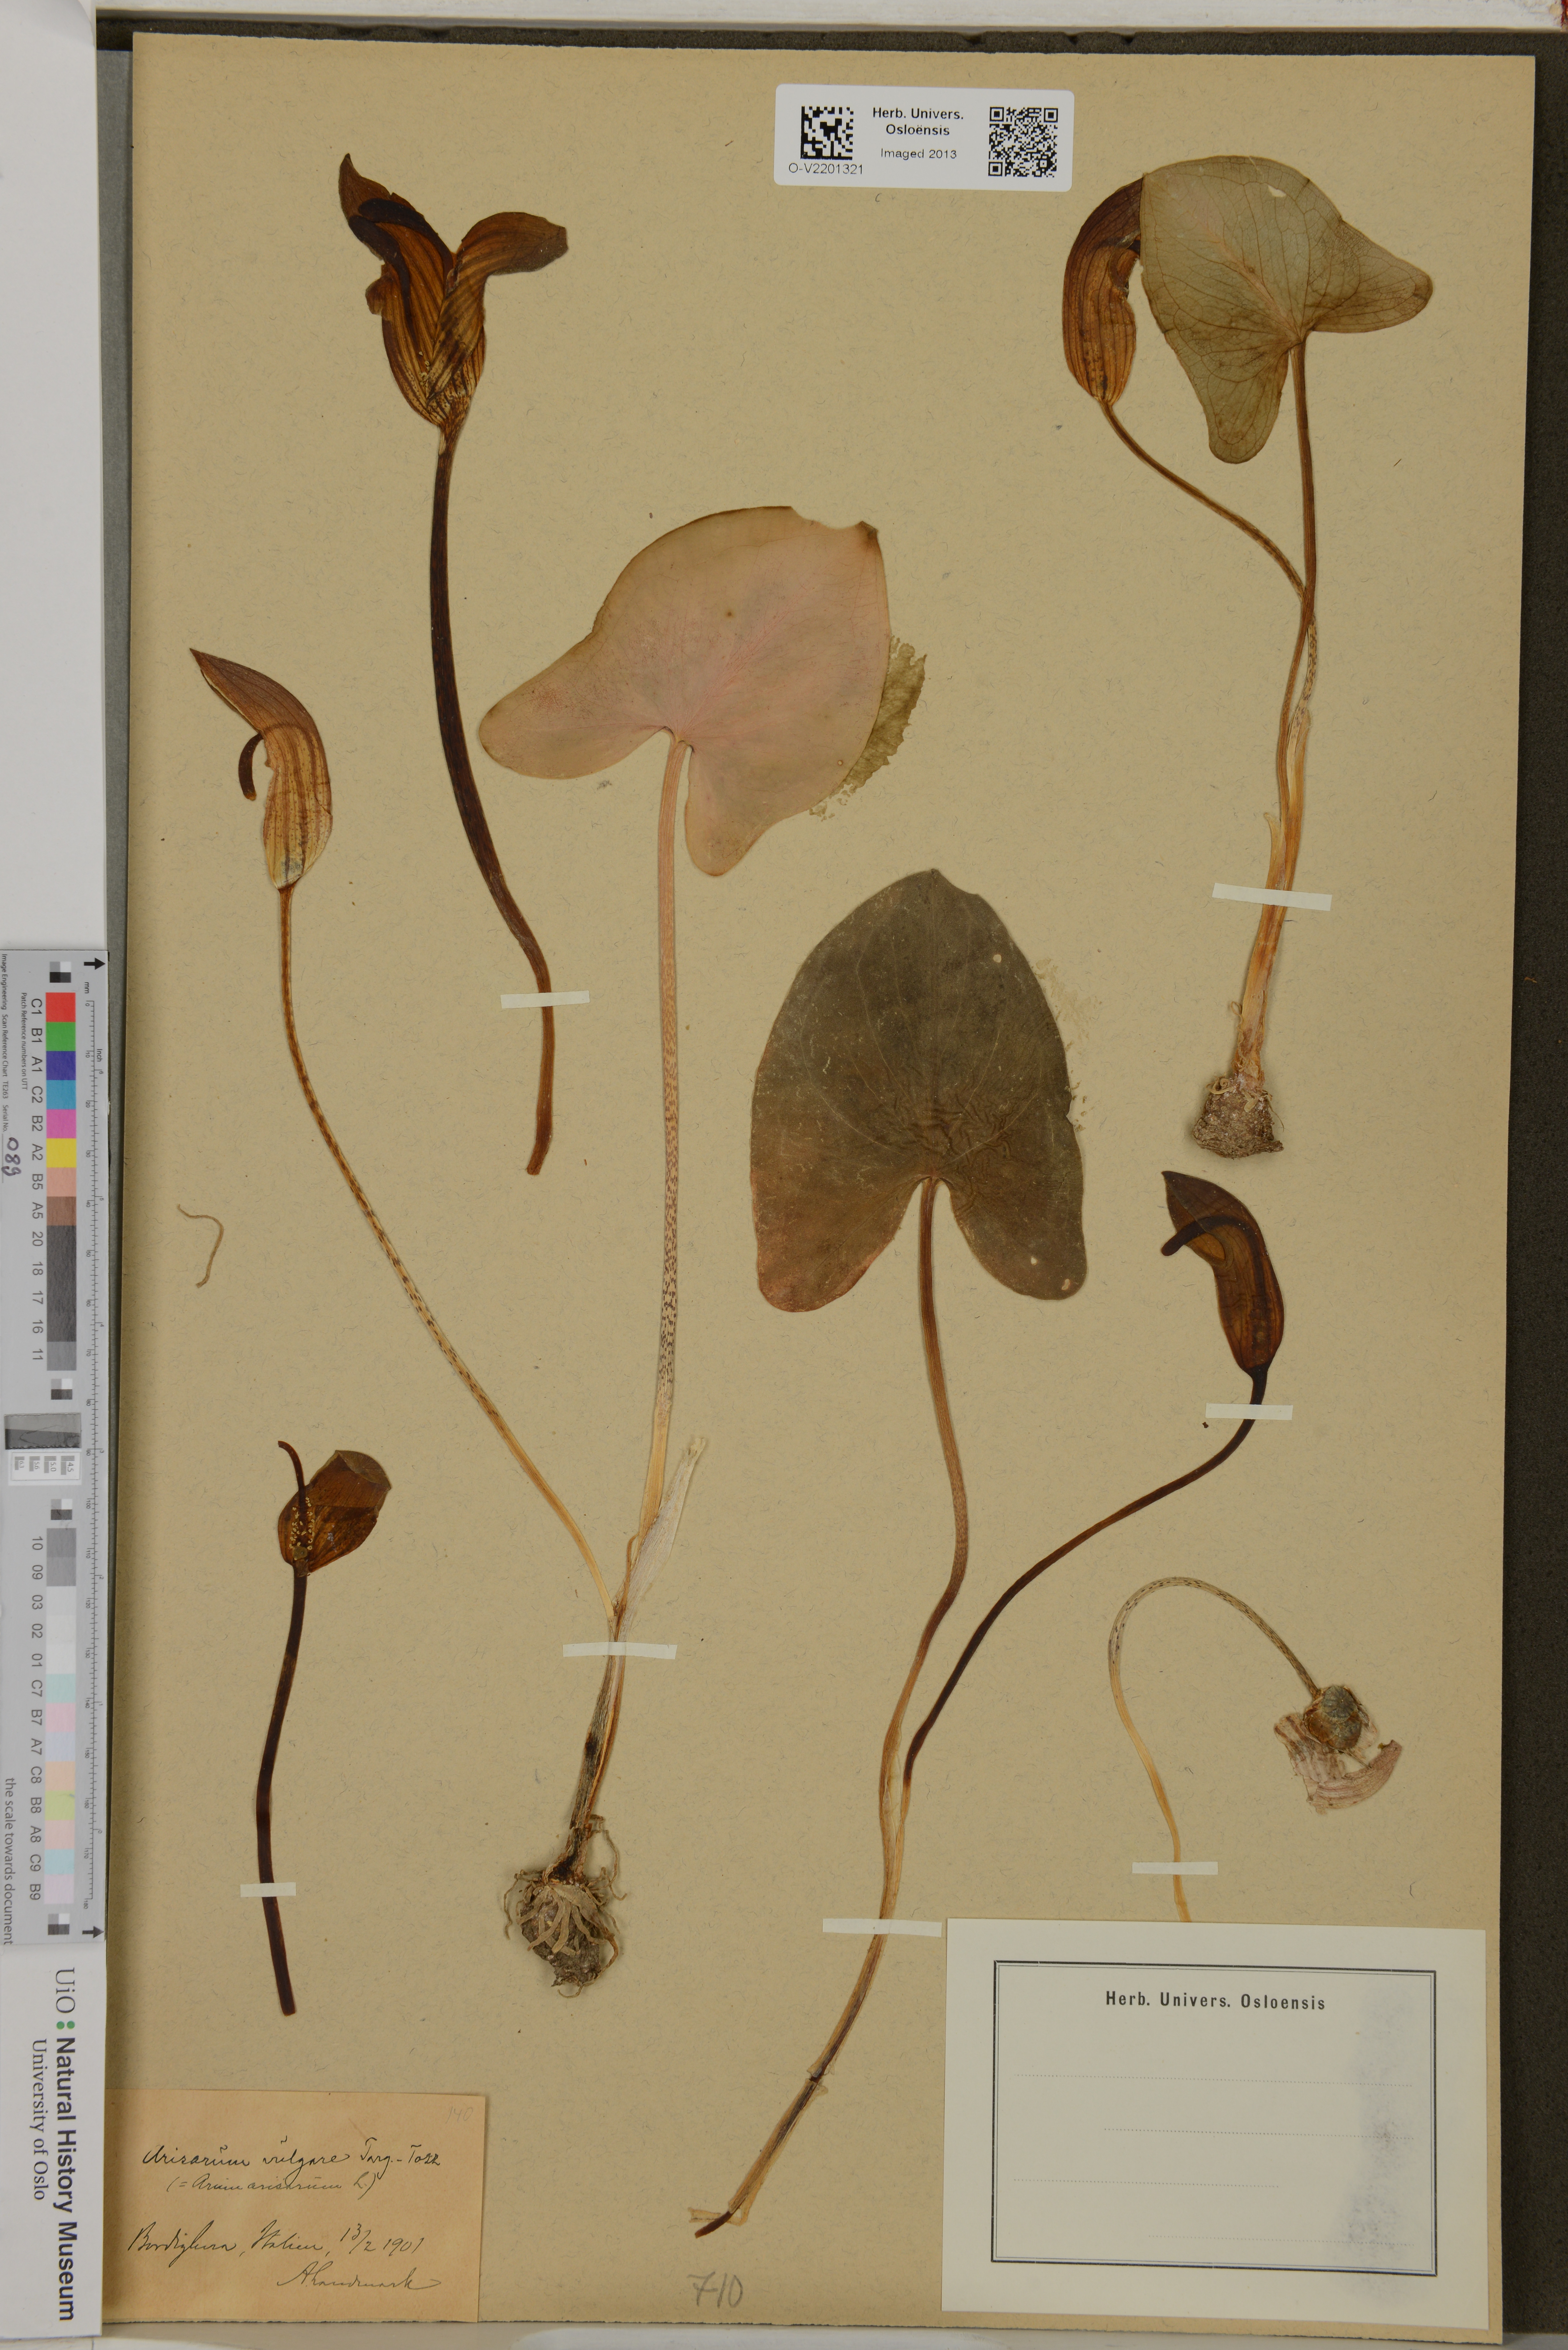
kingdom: Plantae
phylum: Tracheophyta
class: Liliopsida
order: Alismatales
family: Araceae
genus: Arisarum
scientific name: Arisarum vulgare
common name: Common arisarum
